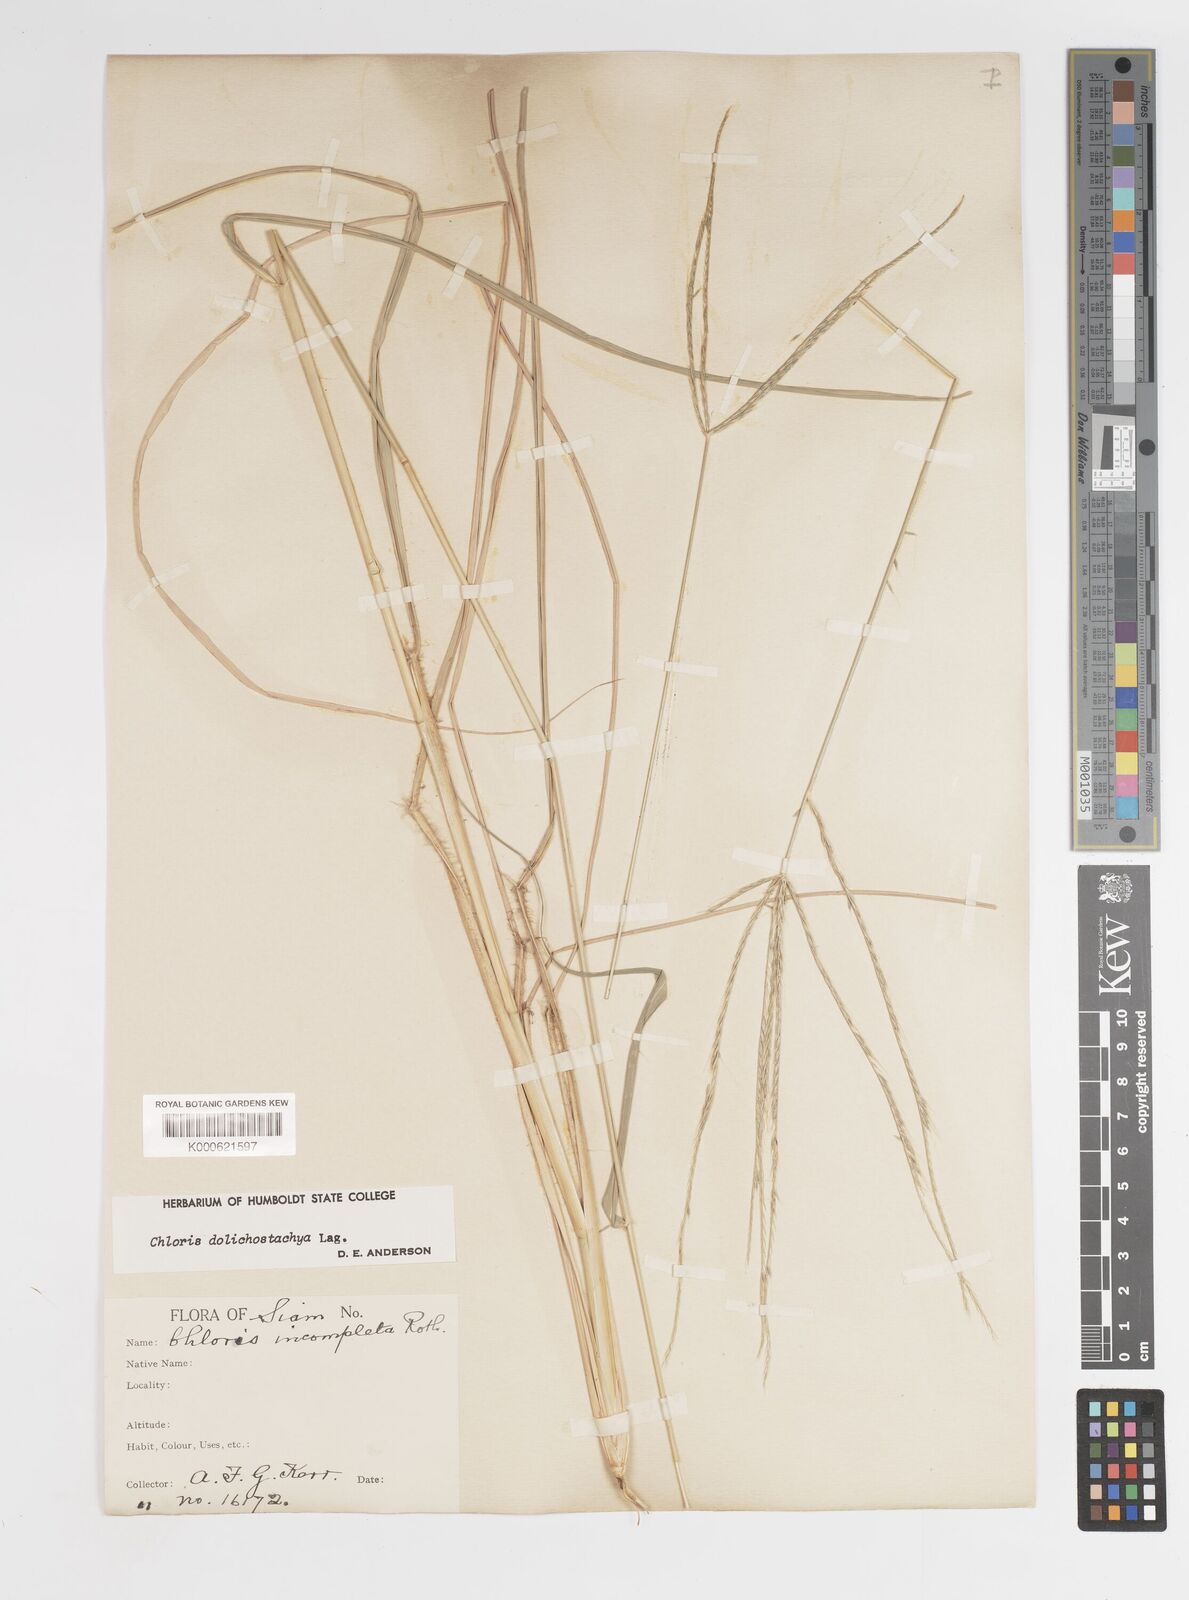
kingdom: Plantae
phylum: Tracheophyta
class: Liliopsida
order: Poales
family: Poaceae
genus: Enteropogon
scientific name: Enteropogon dolichostachyus
